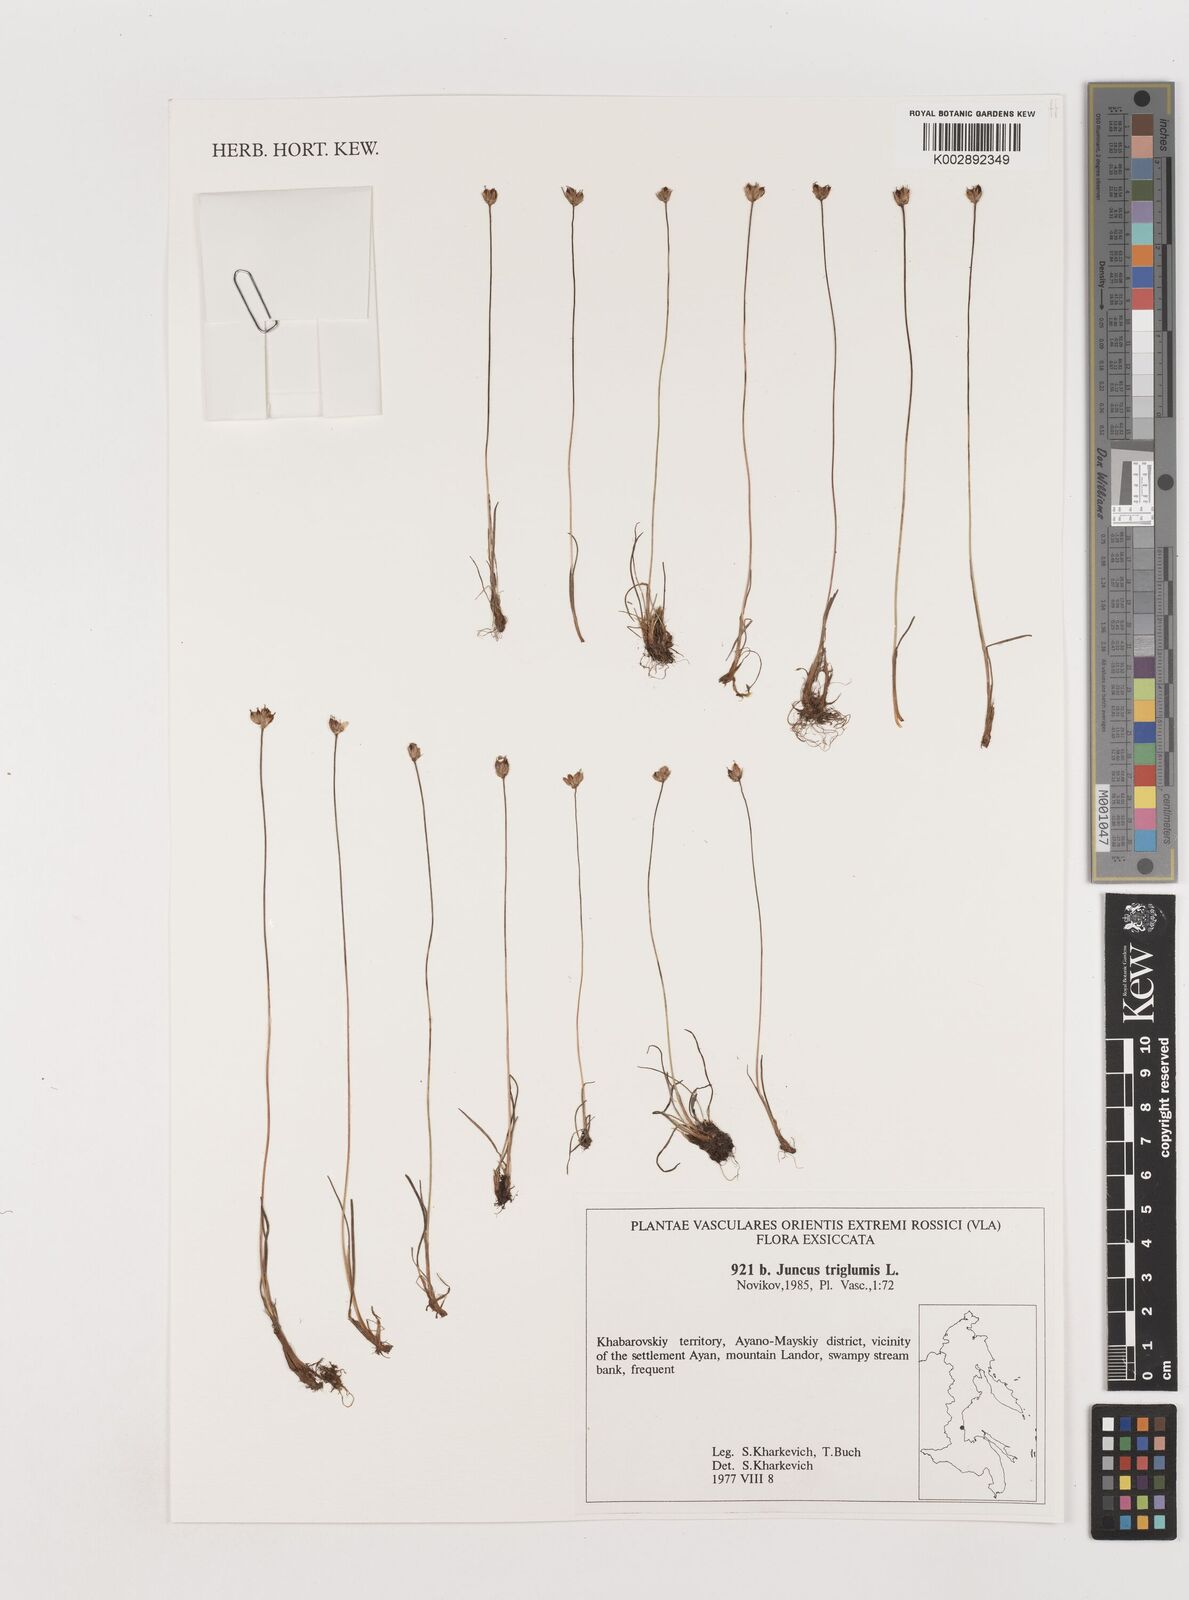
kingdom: Plantae
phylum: Tracheophyta
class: Liliopsida
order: Poales
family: Juncaceae
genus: Juncus
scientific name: Juncus triglumis
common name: Three-flowered rush
